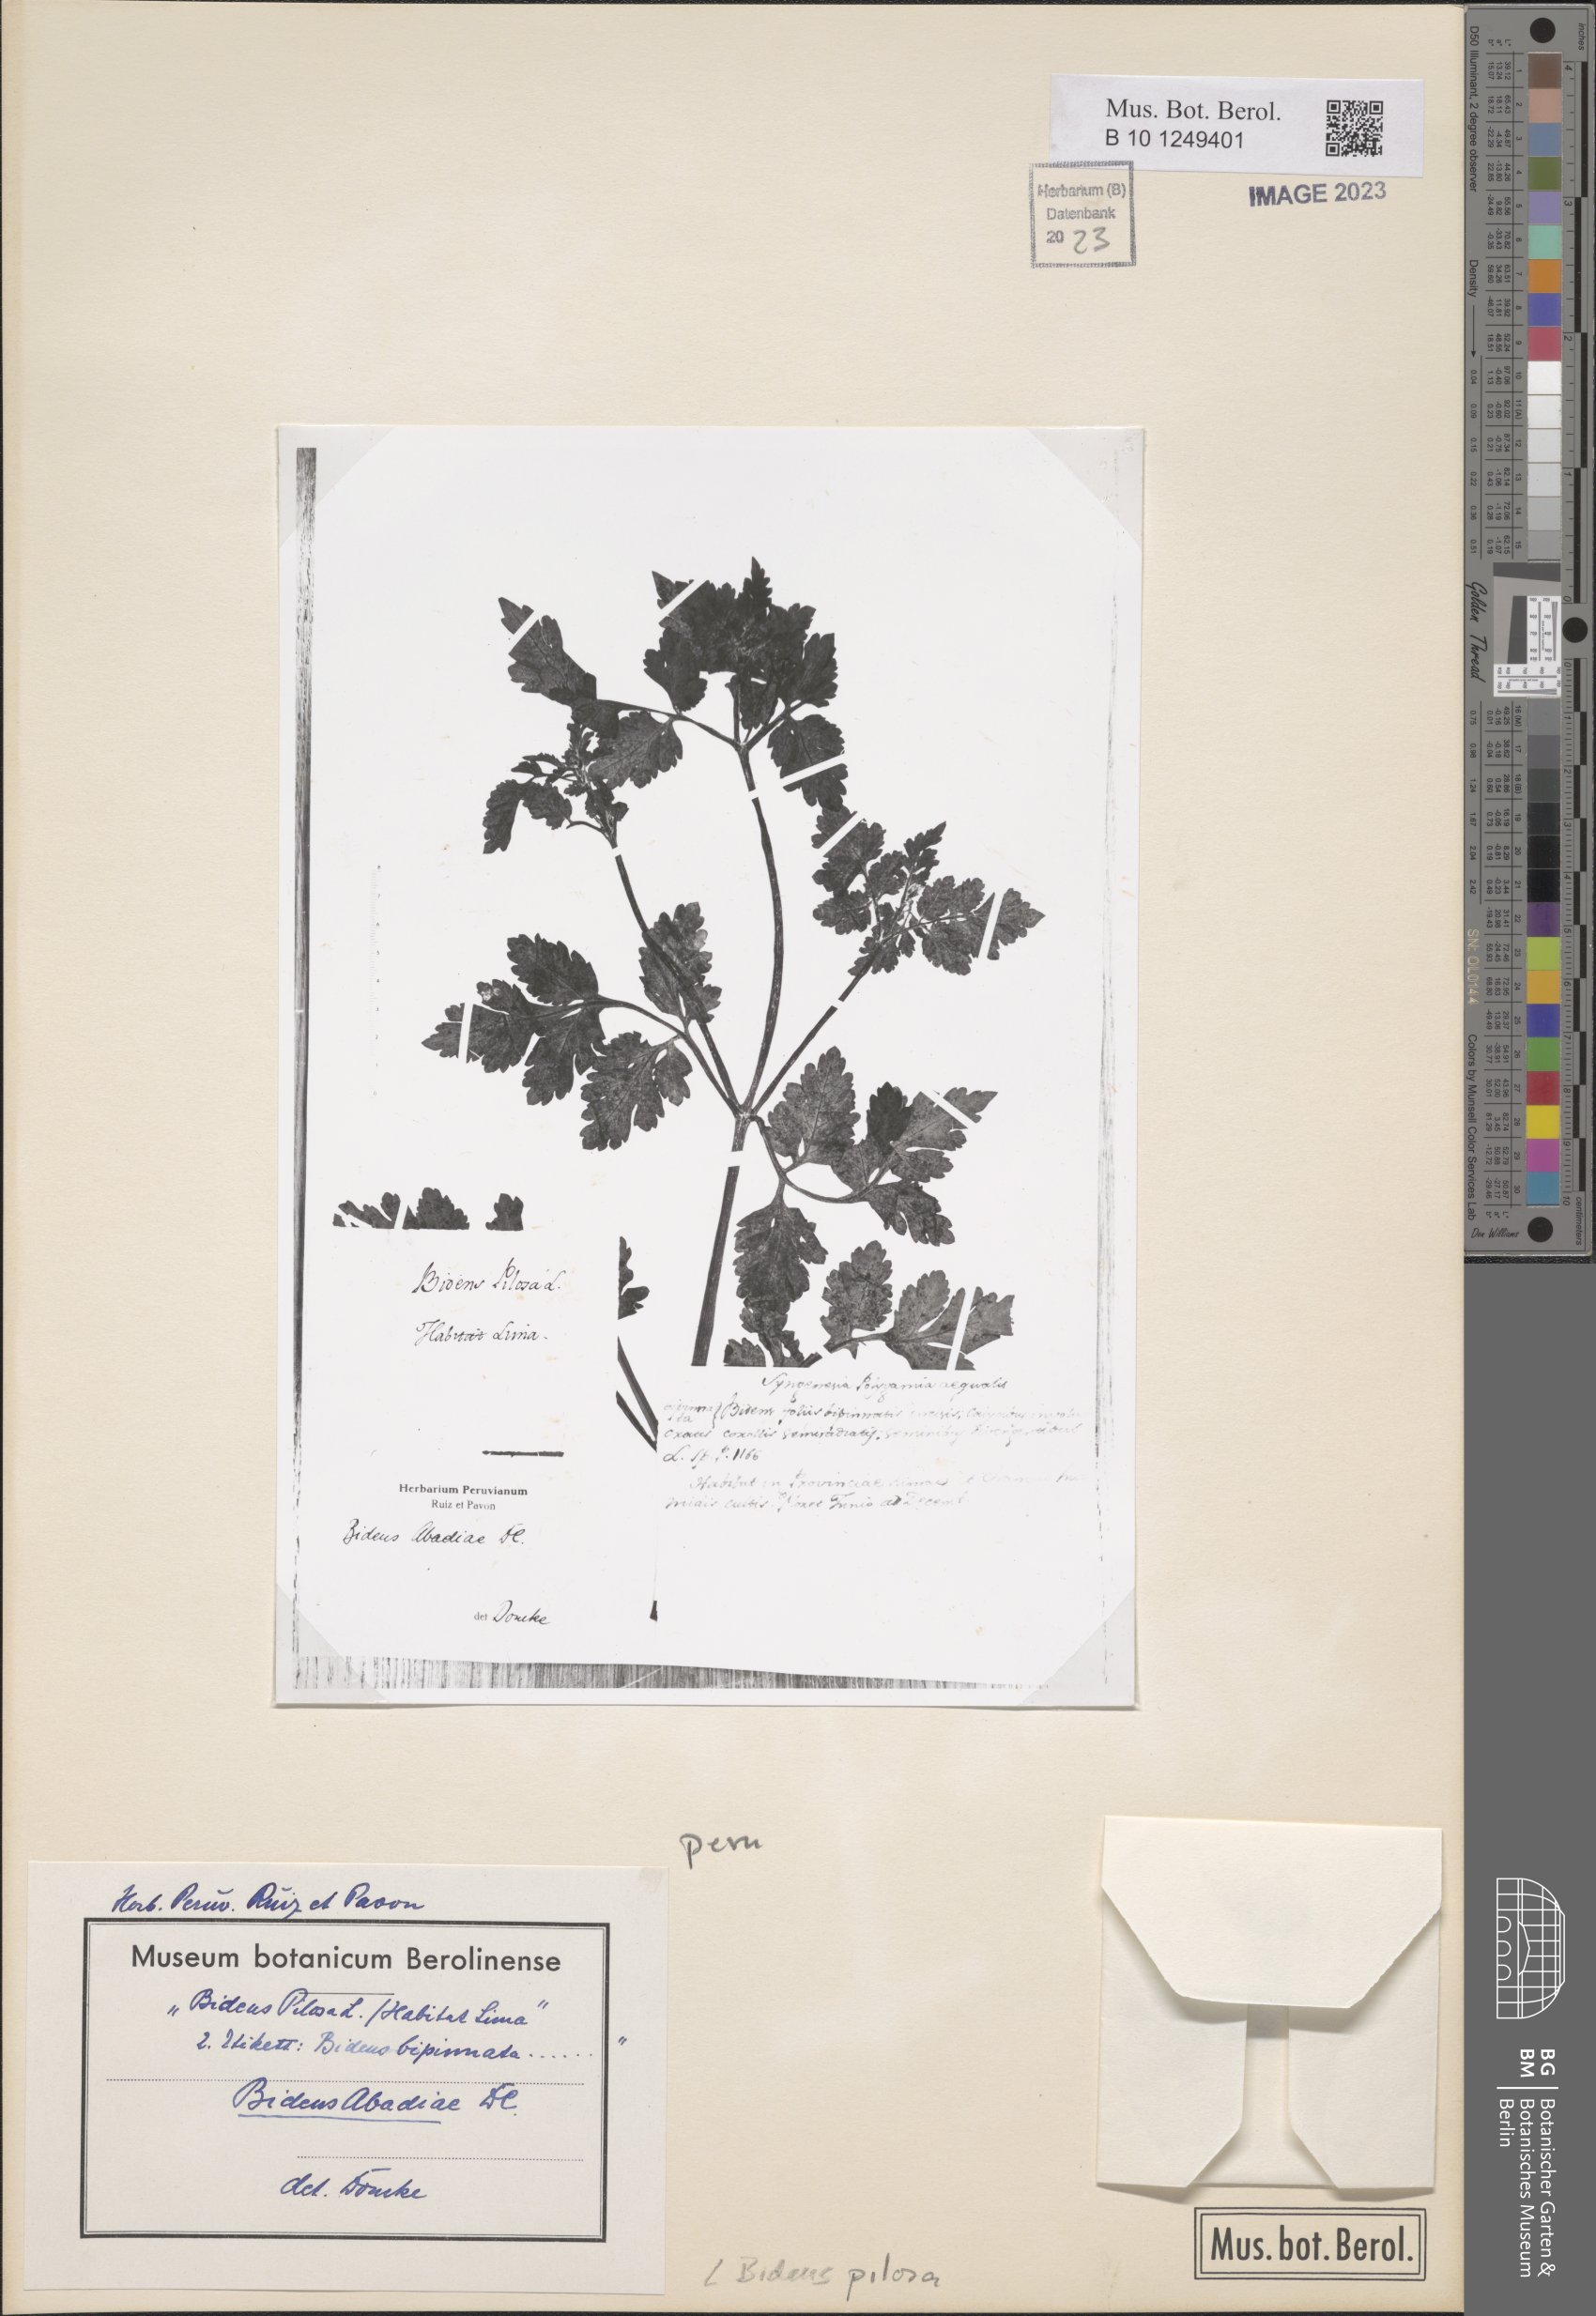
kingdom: Plantae
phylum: Tracheophyta
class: Magnoliopsida
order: Asterales
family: Asteraceae
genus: Bidens
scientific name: Bidens pilosa
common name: Black-jack
